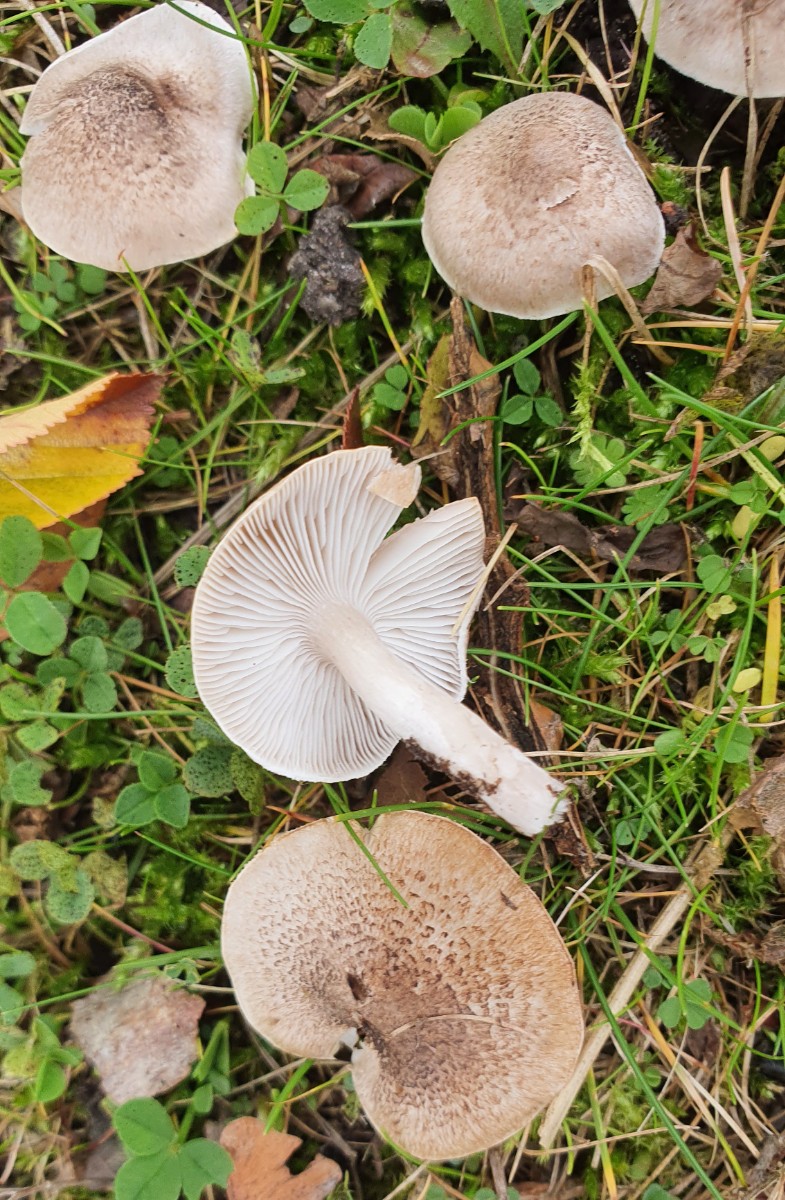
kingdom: Fungi
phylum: Basidiomycota
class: Agaricomycetes
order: Agaricales
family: Tricholomataceae
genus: Tricholoma
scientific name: Tricholoma
